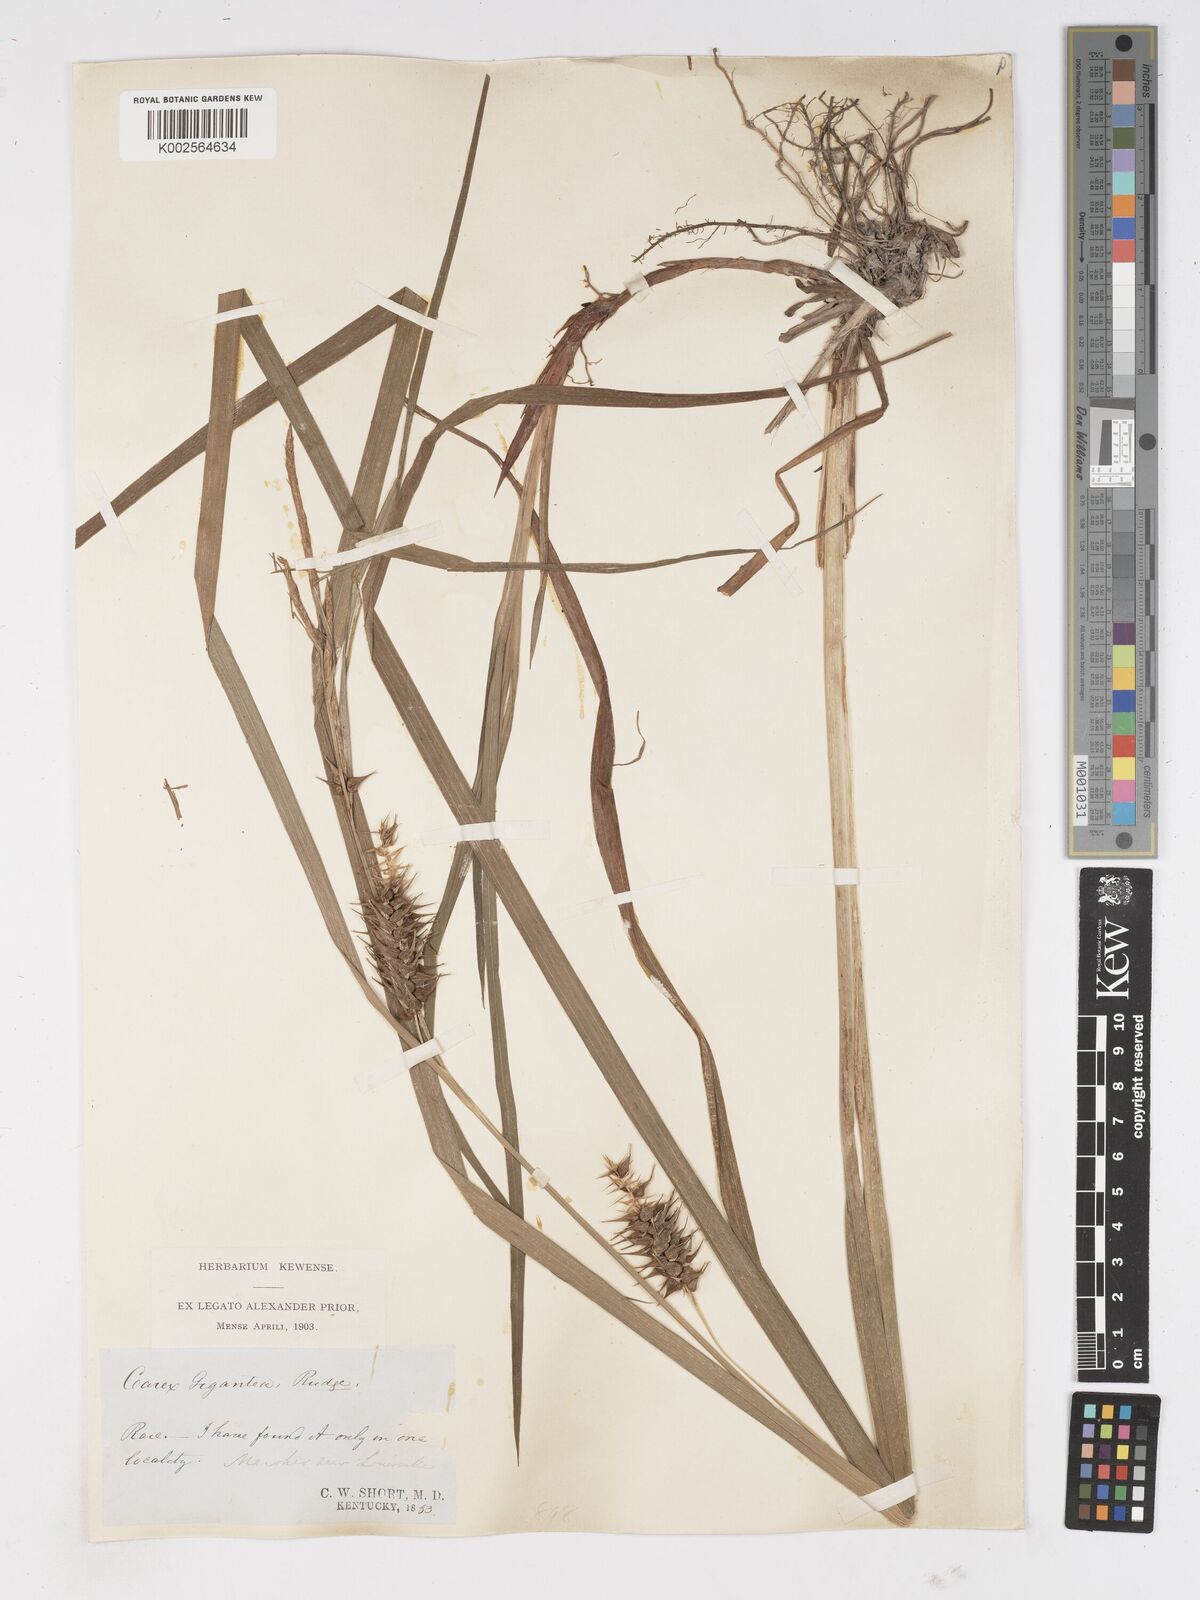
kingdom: Plantae
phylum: Tracheophyta
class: Liliopsida
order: Poales
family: Cyperaceae
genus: Carex
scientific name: Carex gigantea
